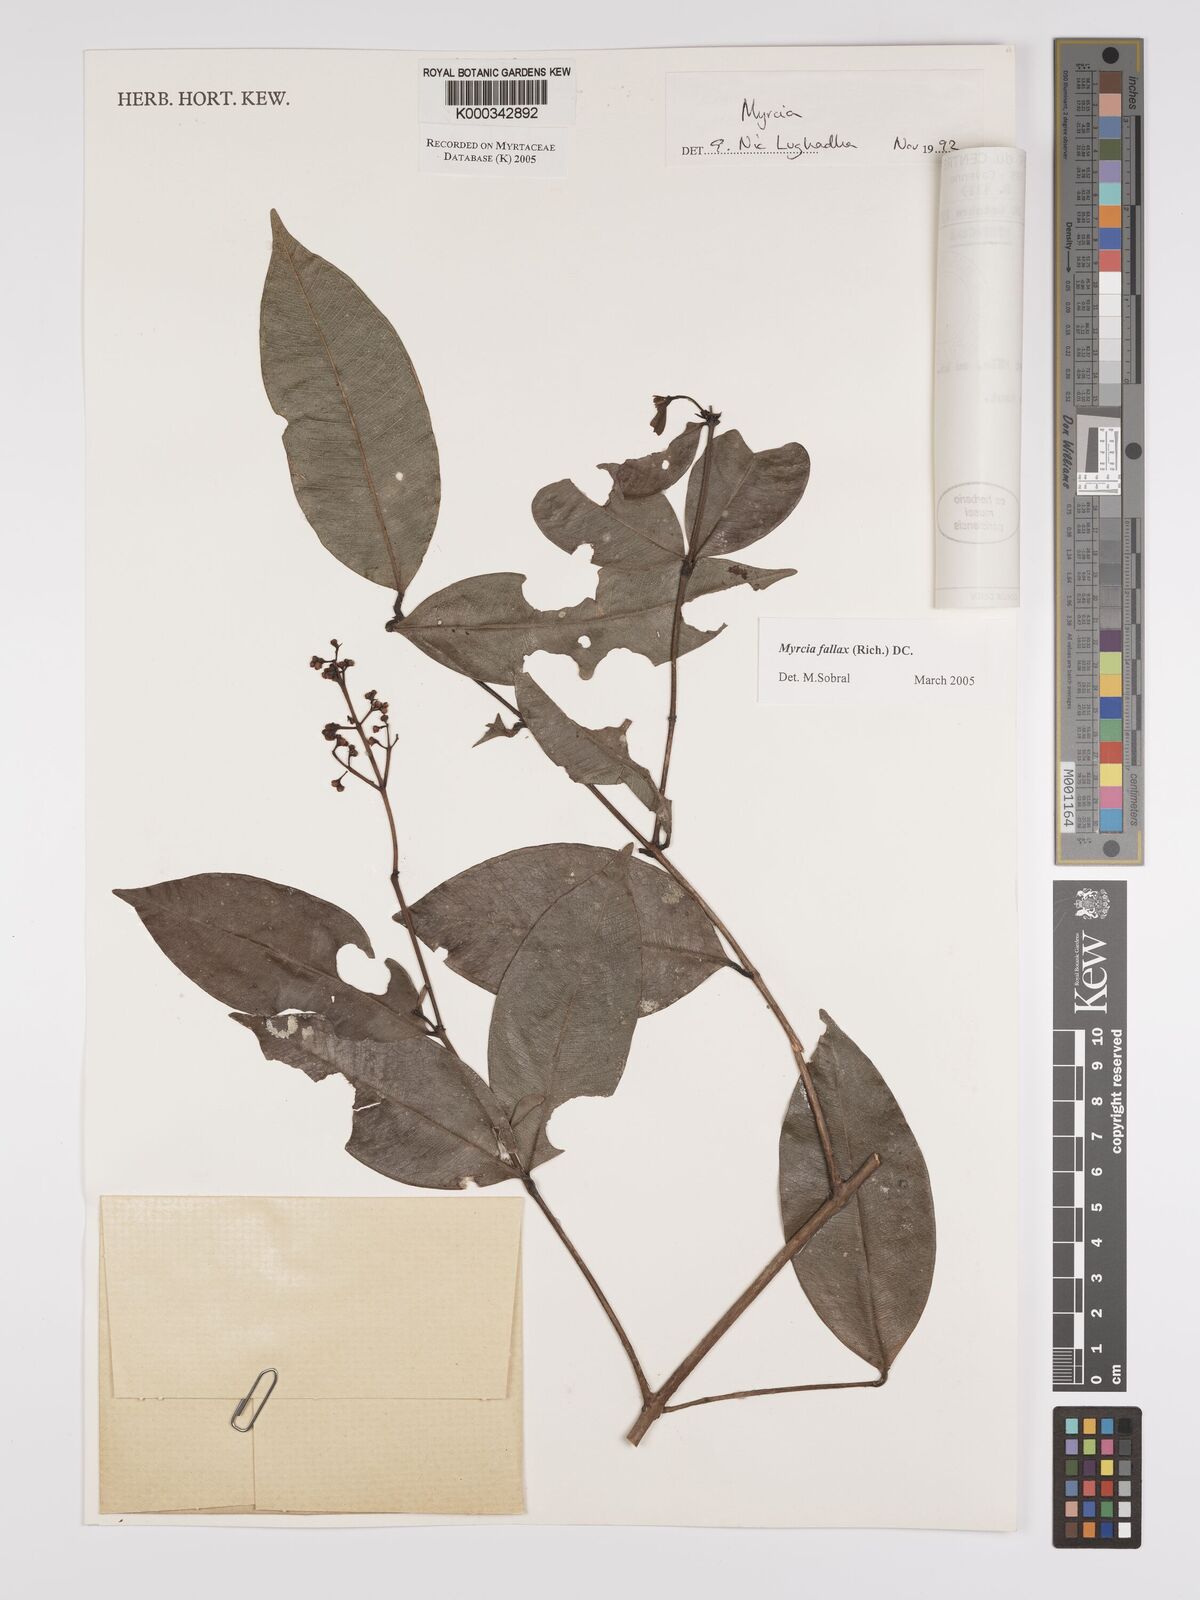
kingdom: Plantae
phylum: Tracheophyta
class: Magnoliopsida
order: Myrtales
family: Myrtaceae
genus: Myrcia
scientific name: Myrcia splendens
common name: Surinam cherry
